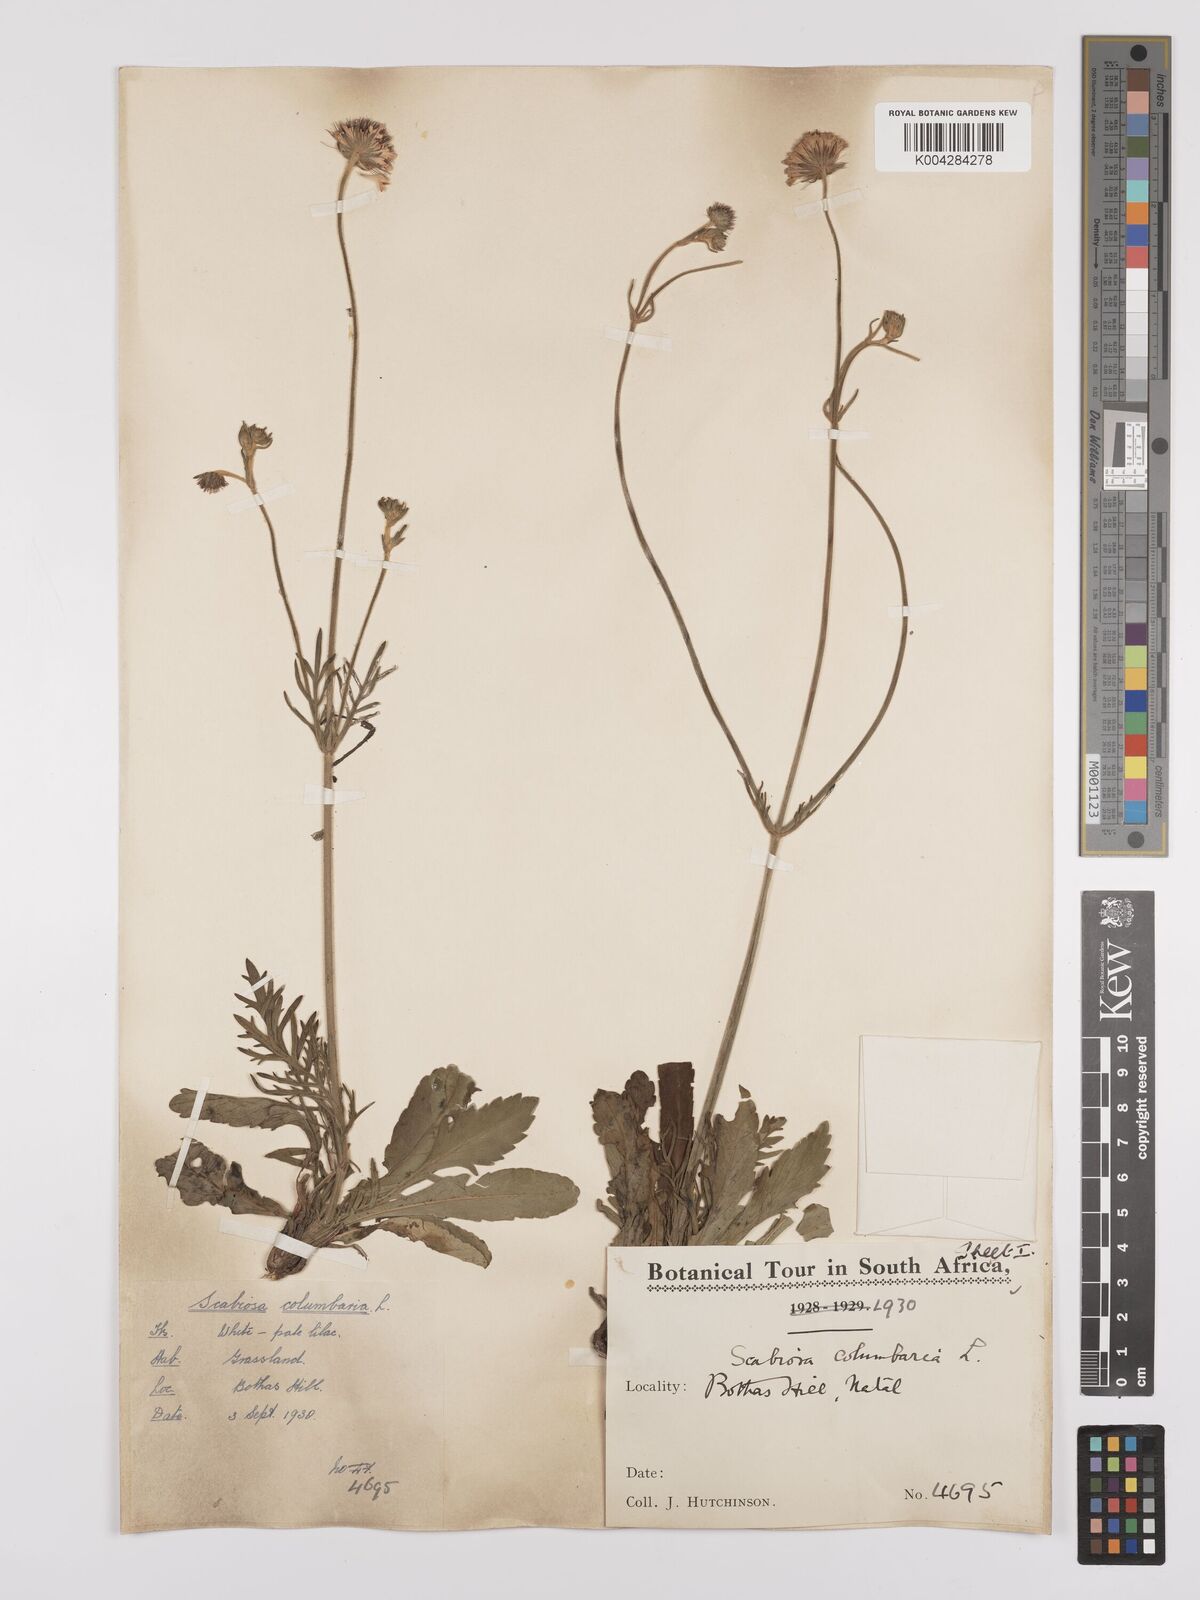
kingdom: Plantae
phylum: Tracheophyta
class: Magnoliopsida
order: Dipsacales
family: Caprifoliaceae
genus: Scabiosa
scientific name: Scabiosa columbaria
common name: Small scabious
